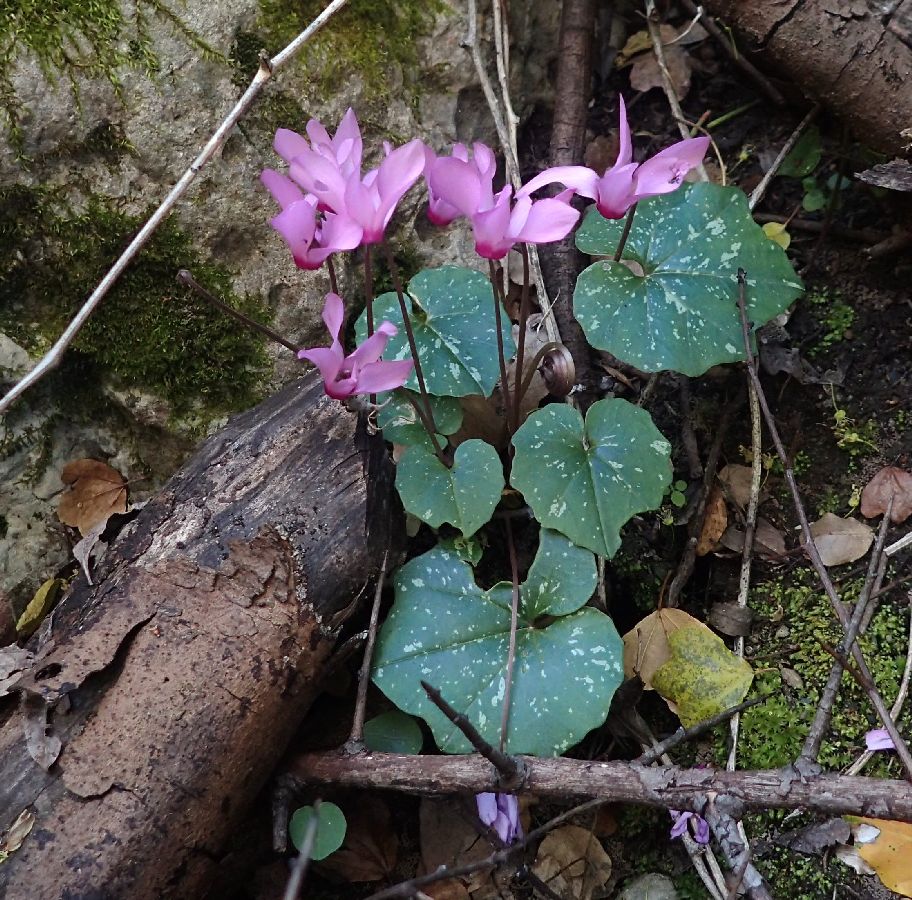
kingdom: Plantae
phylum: Tracheophyta
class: Magnoliopsida
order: Ericales
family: Primulaceae
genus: Cyclamen
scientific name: Cyclamen repandum
